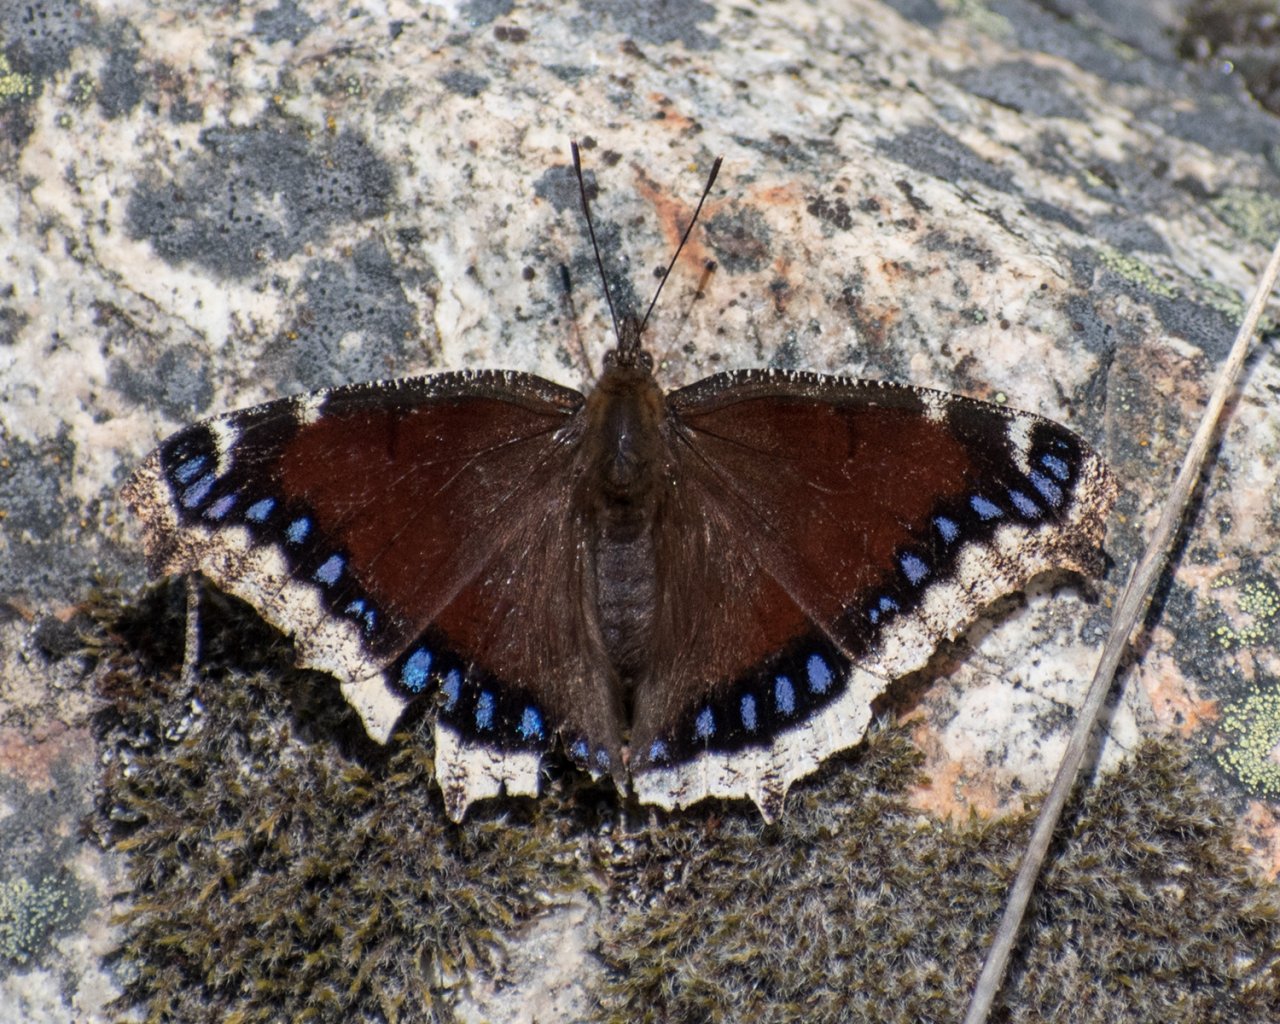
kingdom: Animalia
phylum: Arthropoda
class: Insecta
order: Lepidoptera
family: Nymphalidae
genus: Nymphalis
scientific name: Nymphalis antiopa
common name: Mourning Cloak
